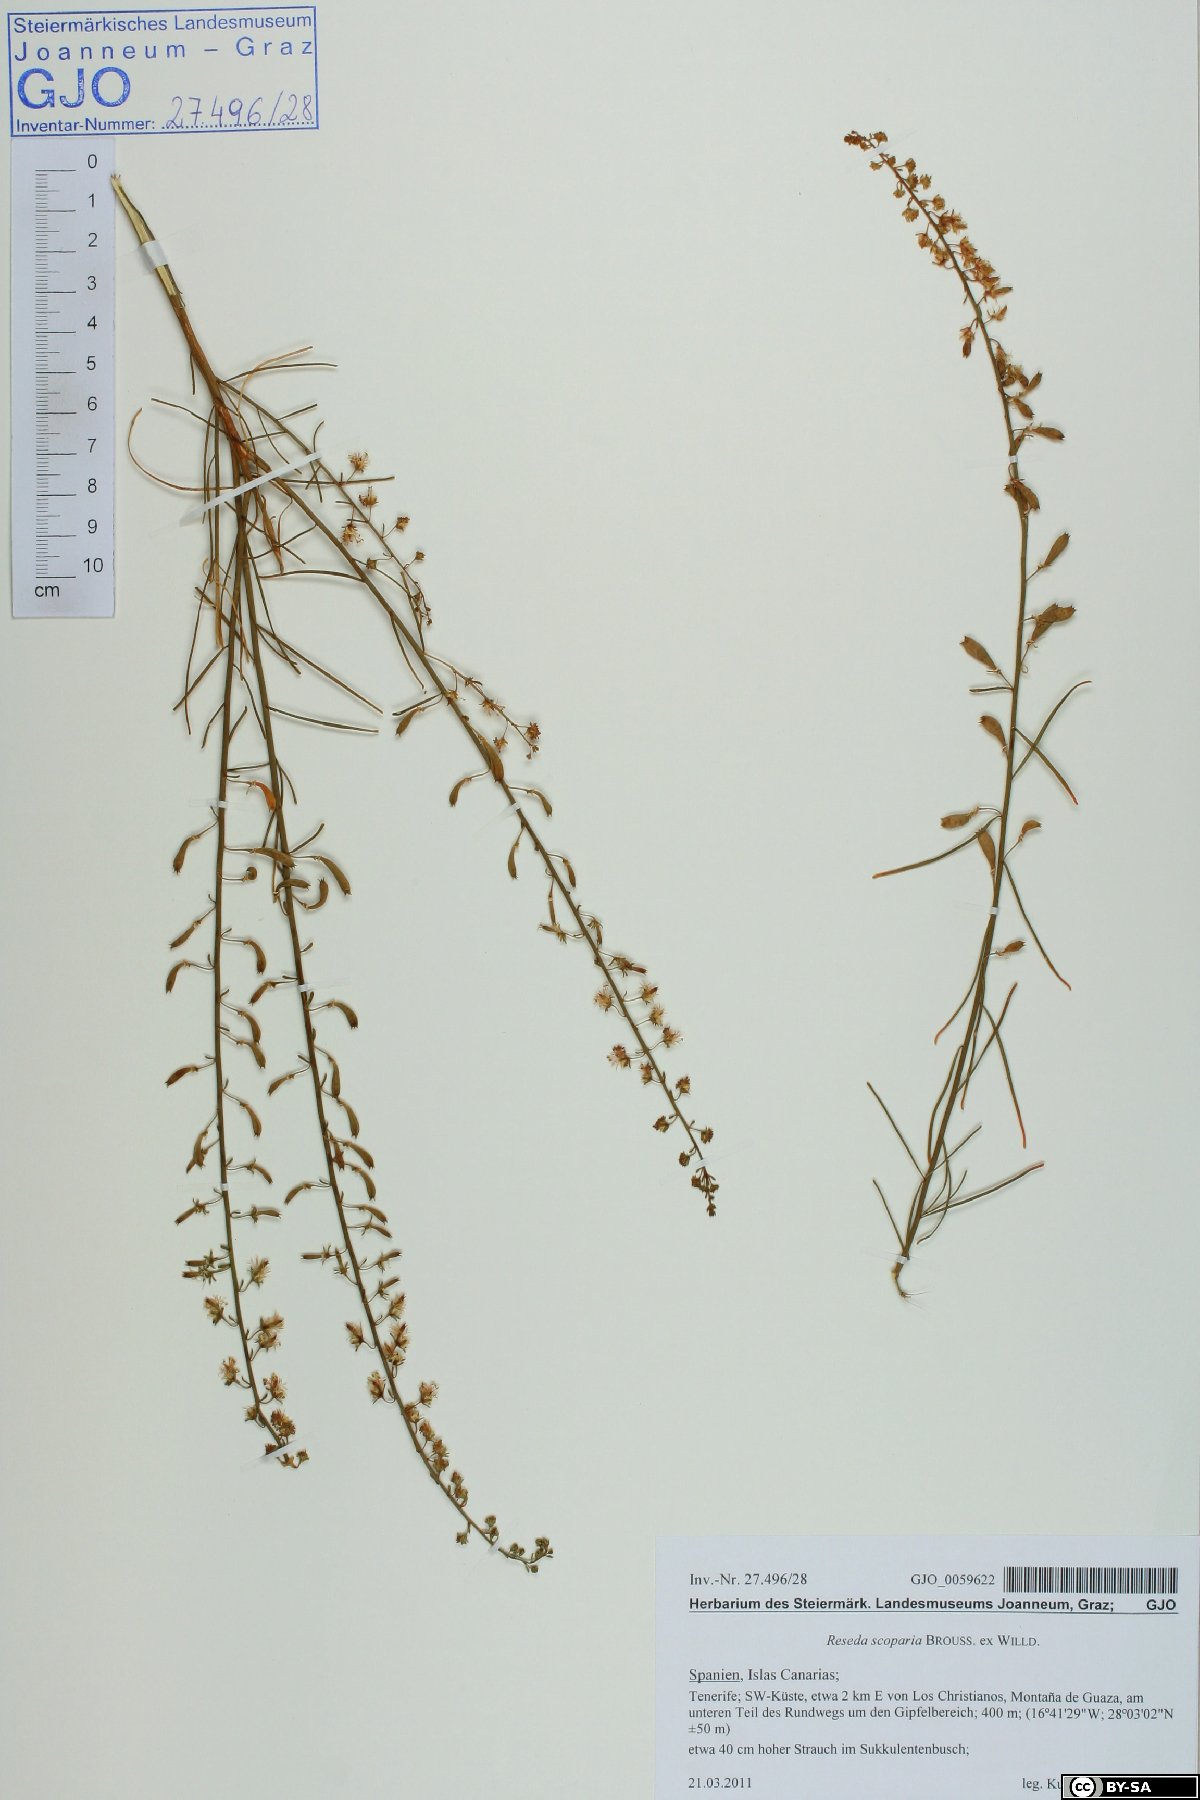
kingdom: Plantae
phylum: Tracheophyta
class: Magnoliopsida
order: Brassicales
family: Resedaceae
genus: Reseda
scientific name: Reseda scoparia
